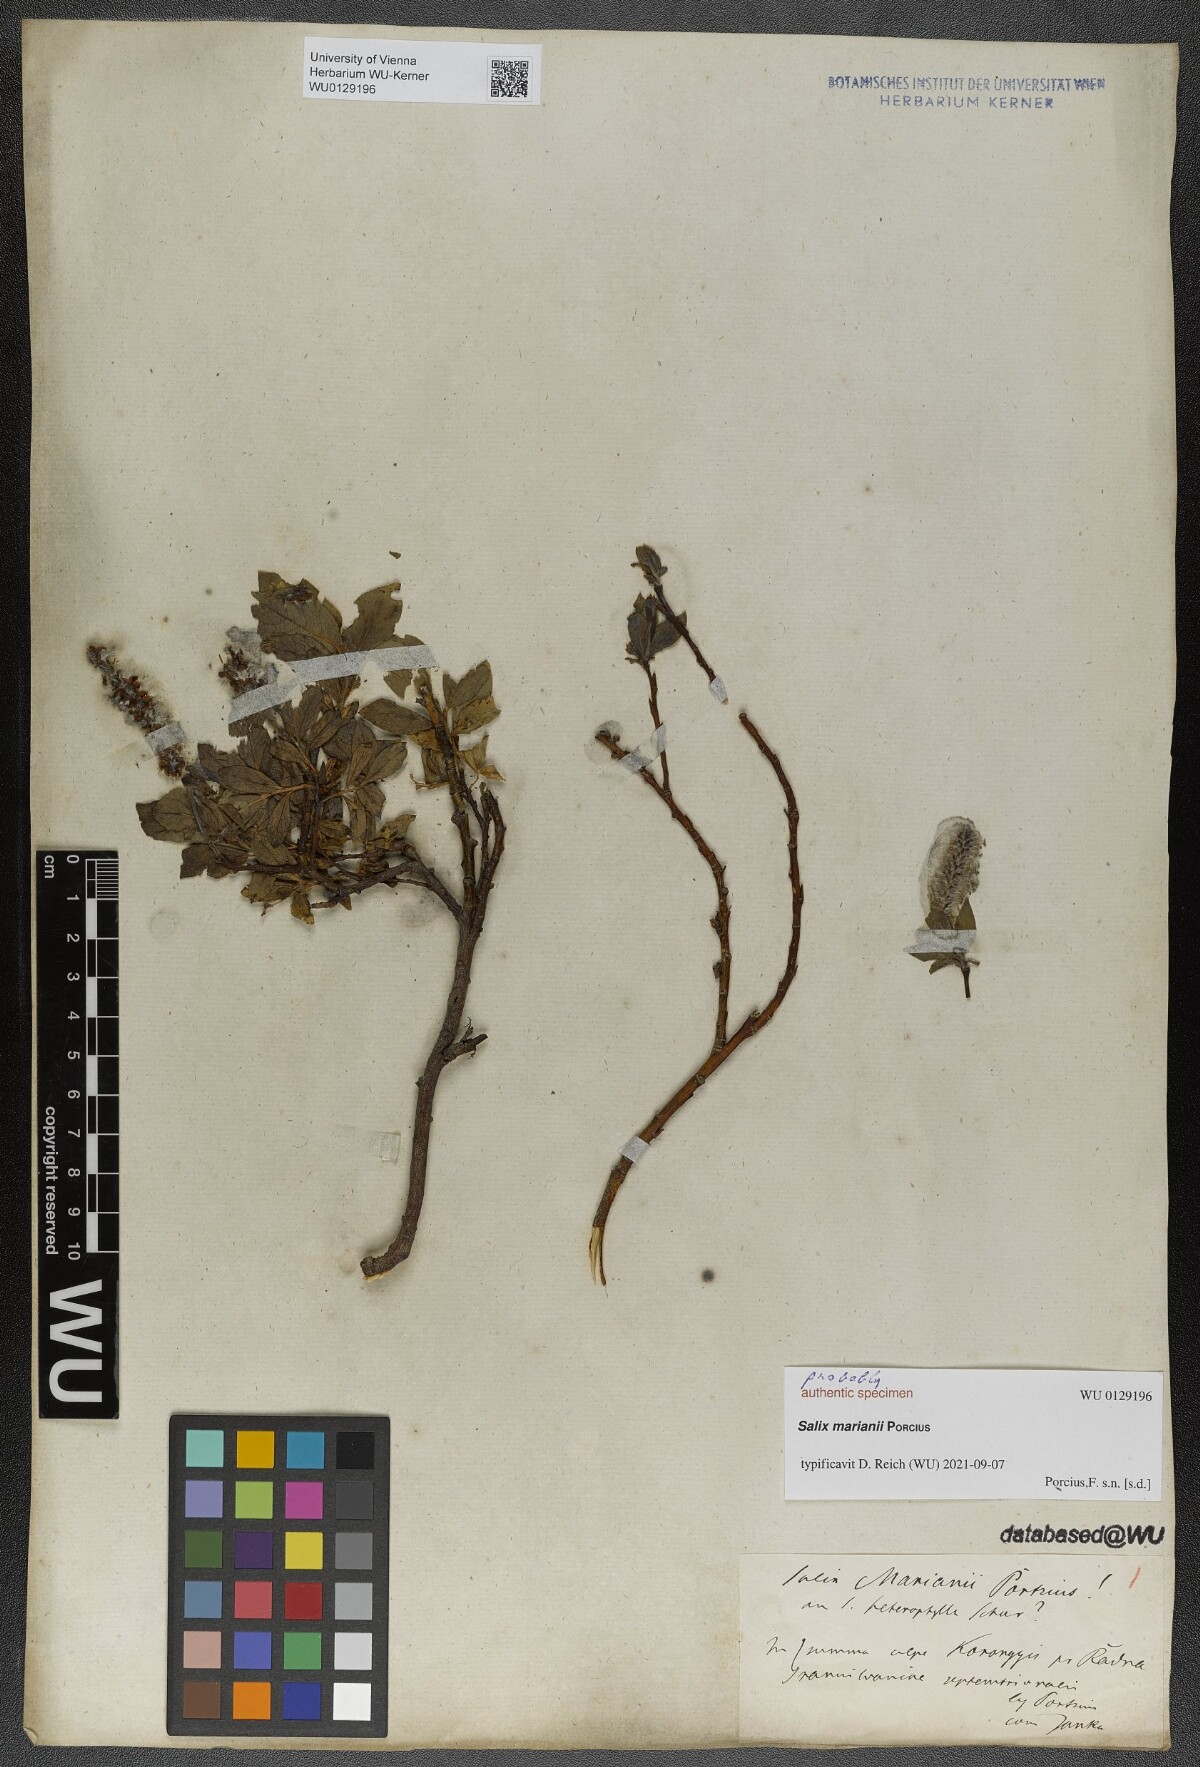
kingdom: Plantae
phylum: Tracheophyta
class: Magnoliopsida
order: Malpighiales
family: Salicaceae
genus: Salix
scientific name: Salix mariana
